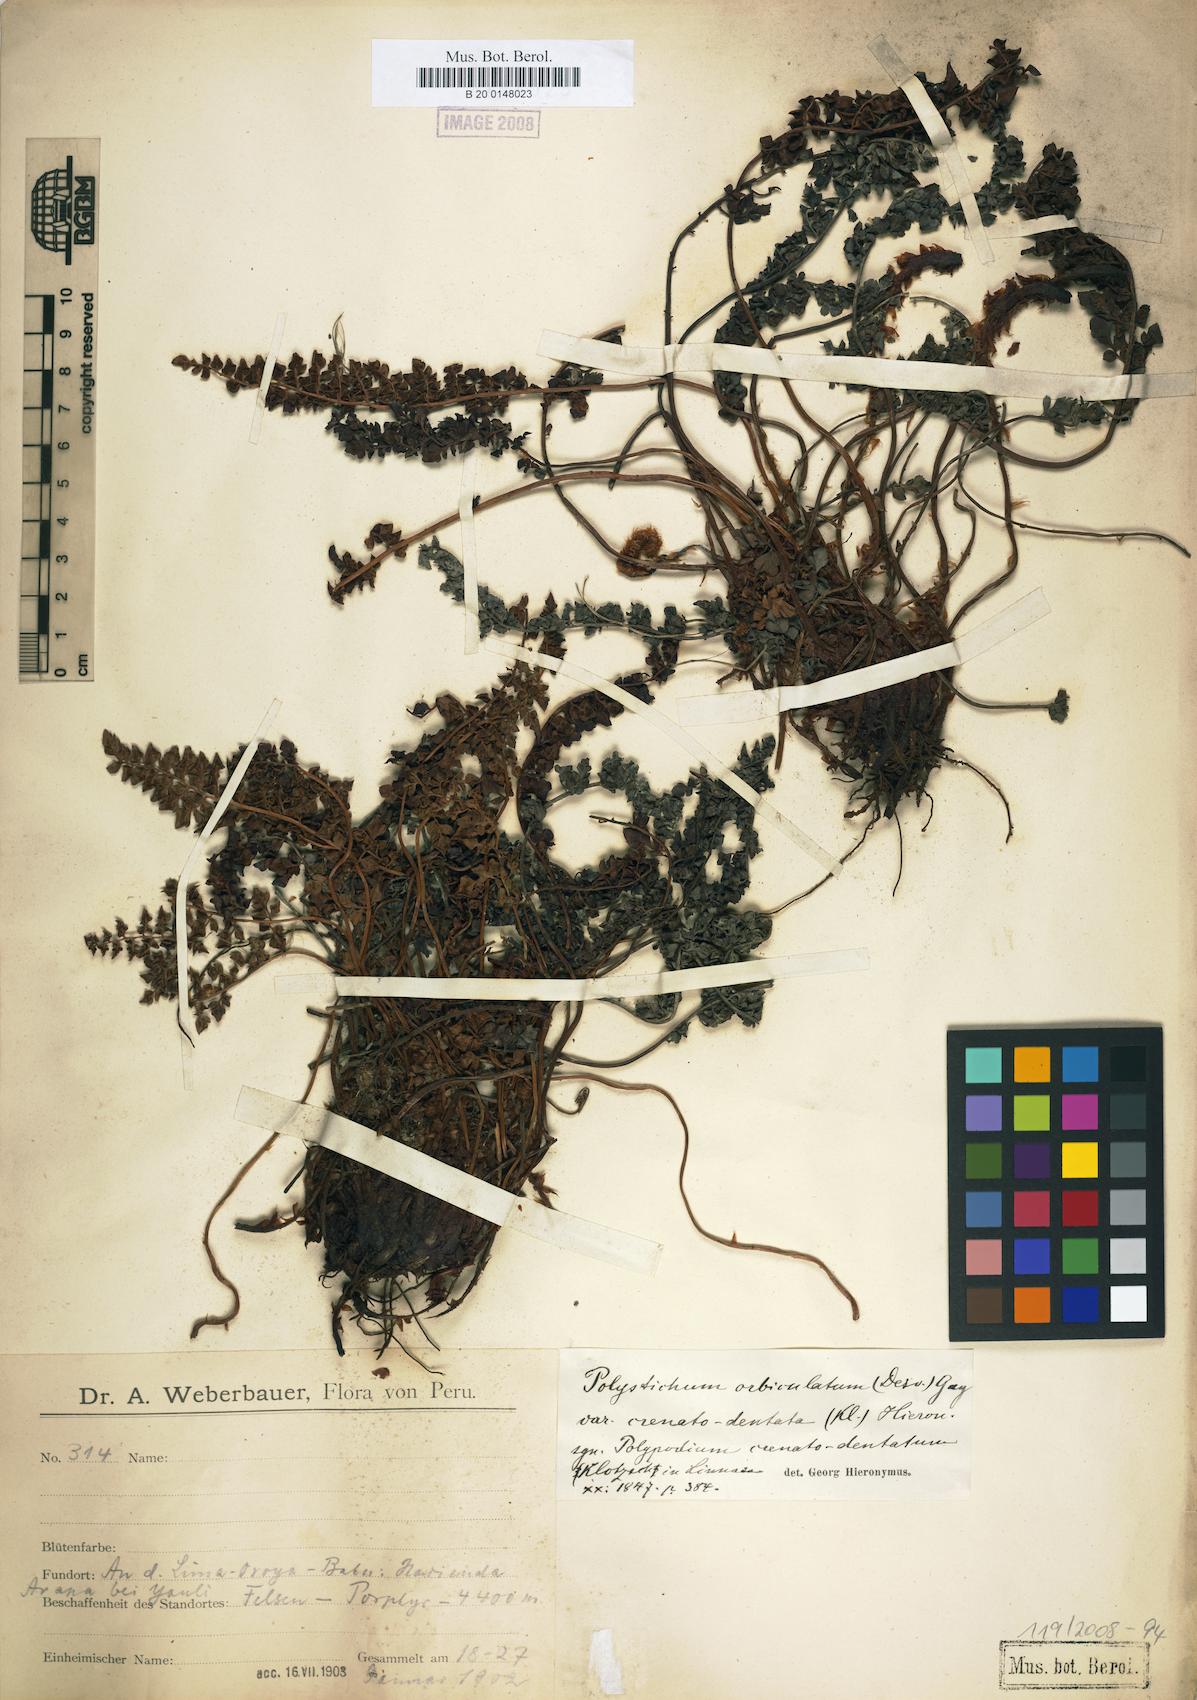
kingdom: Plantae
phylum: Tracheophyta
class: Polypodiopsida
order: Polypodiales
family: Dryopteridaceae
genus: Polystichum
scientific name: Polystichum orbiculatum
